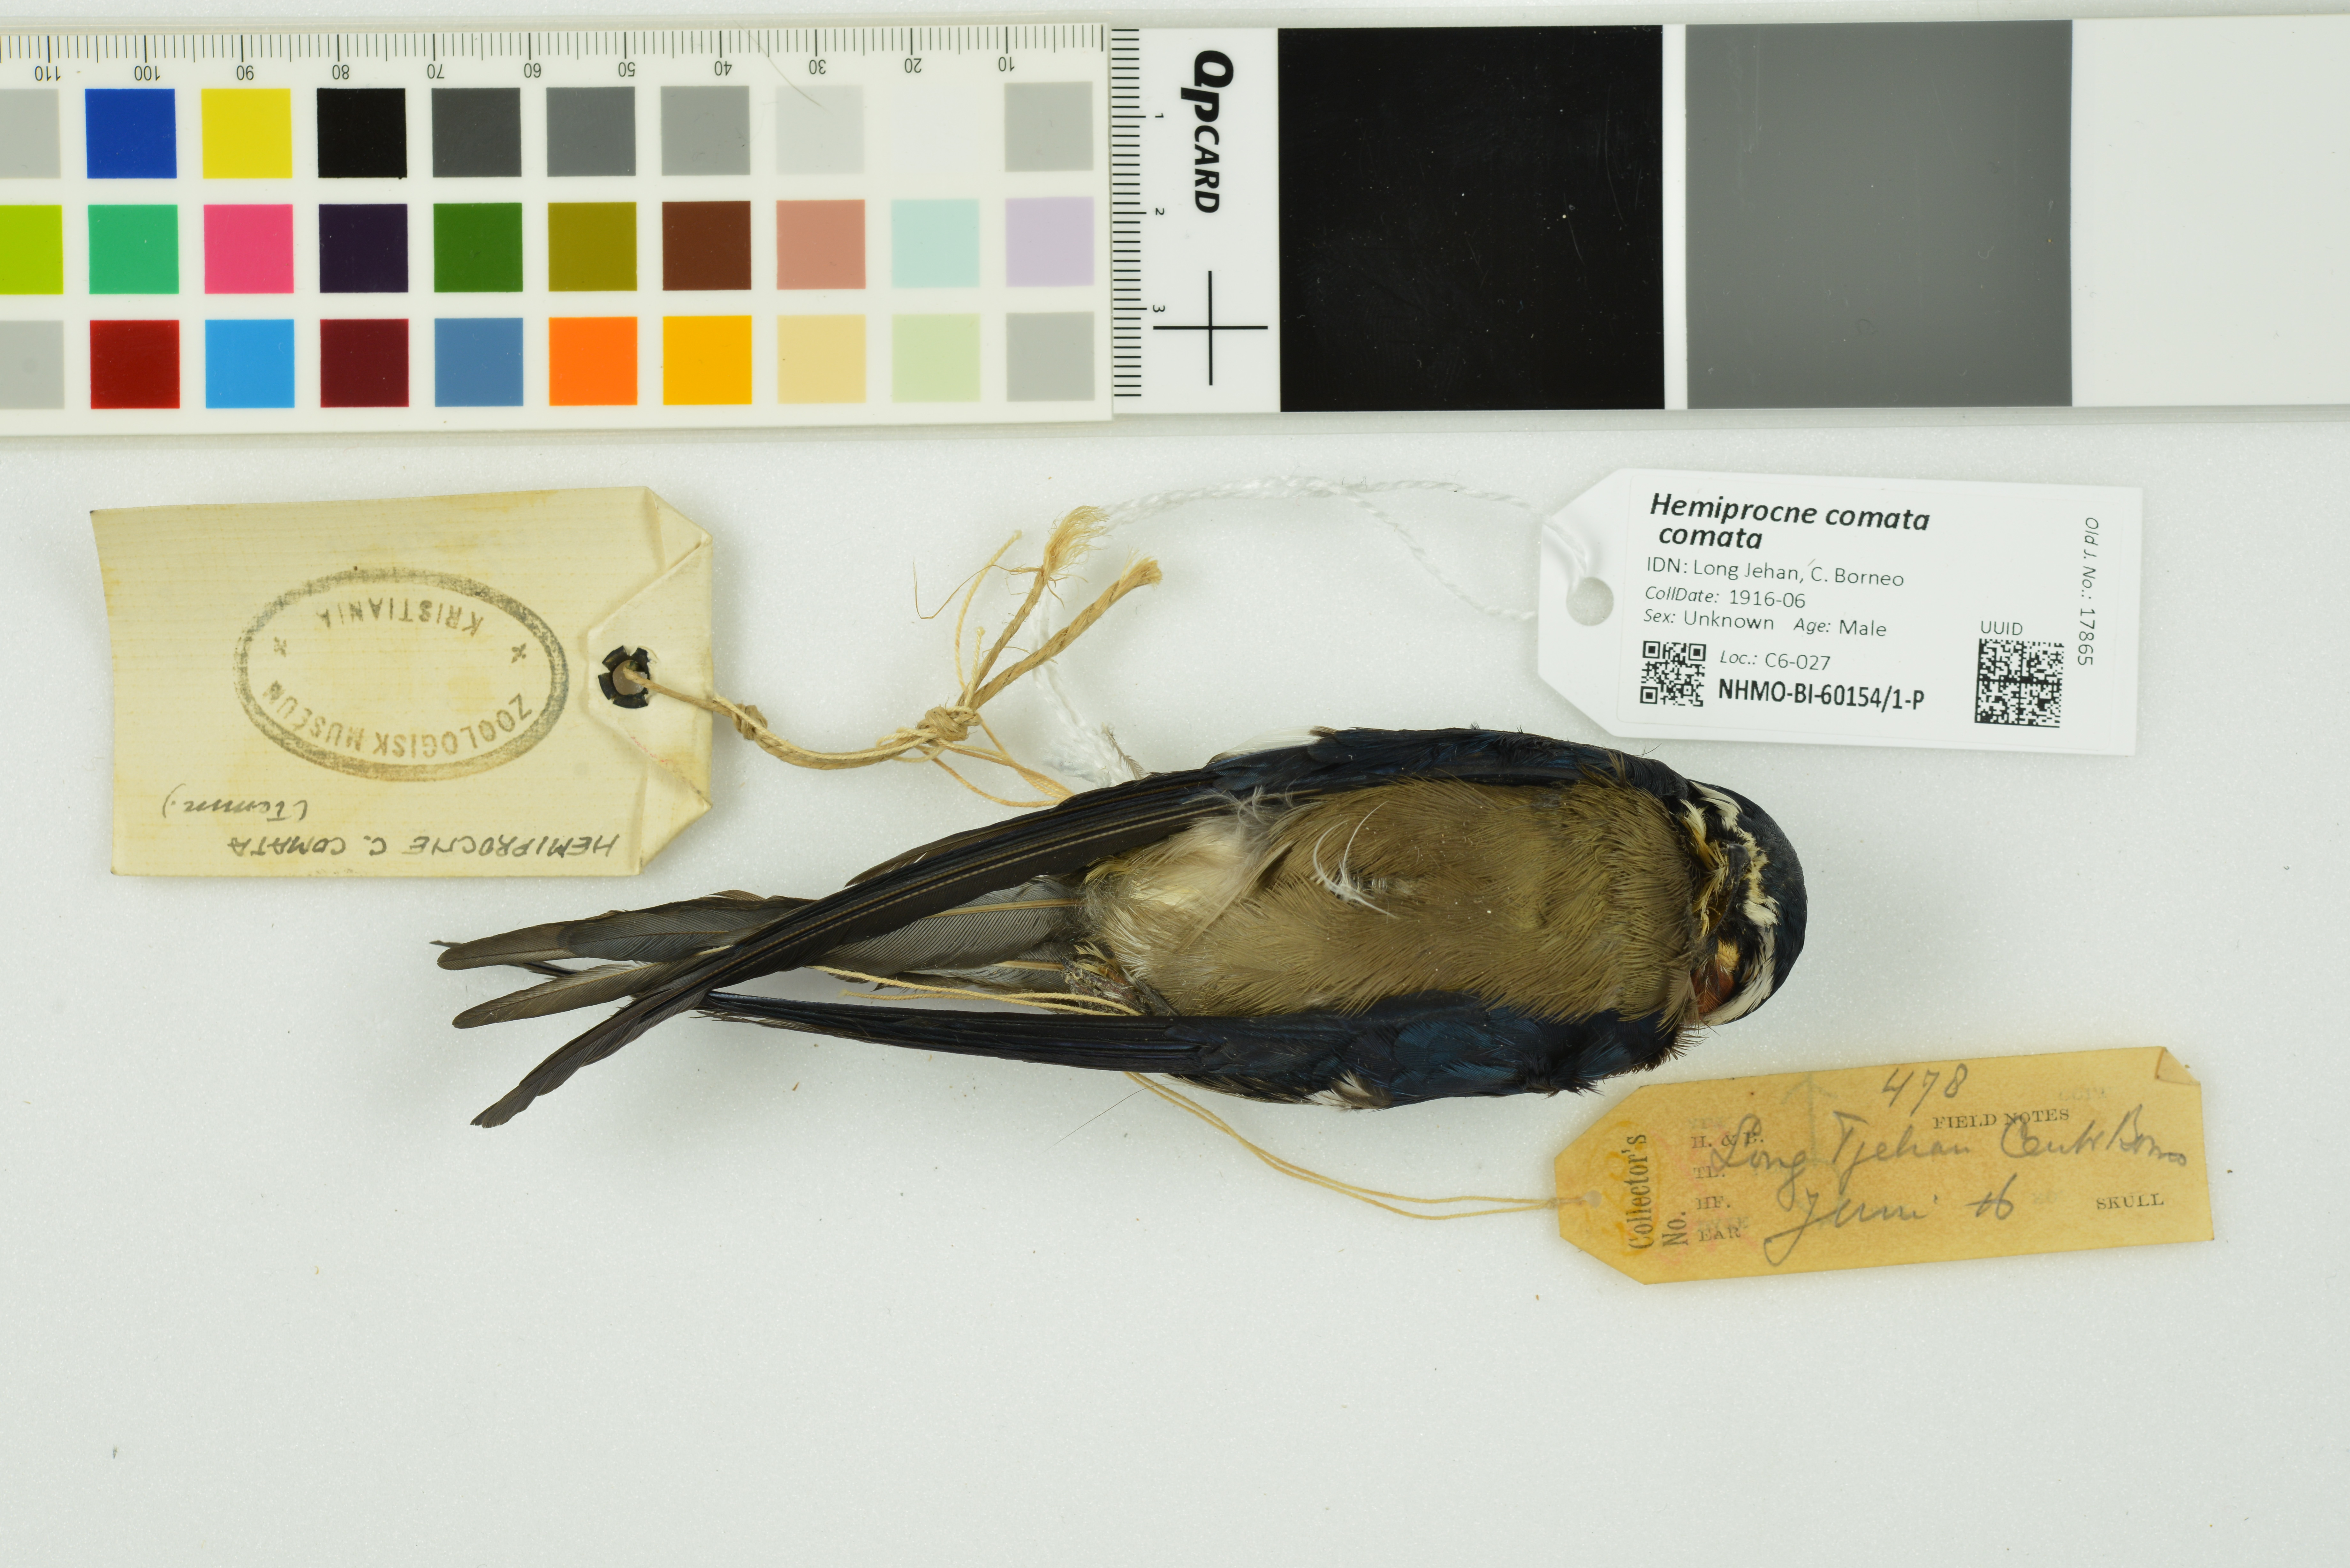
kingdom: Animalia
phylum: Chordata
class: Aves
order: Apodiformes
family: Hemiprocnidae
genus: Hemiprocne
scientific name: Hemiprocne comata
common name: Whiskered treeswift
